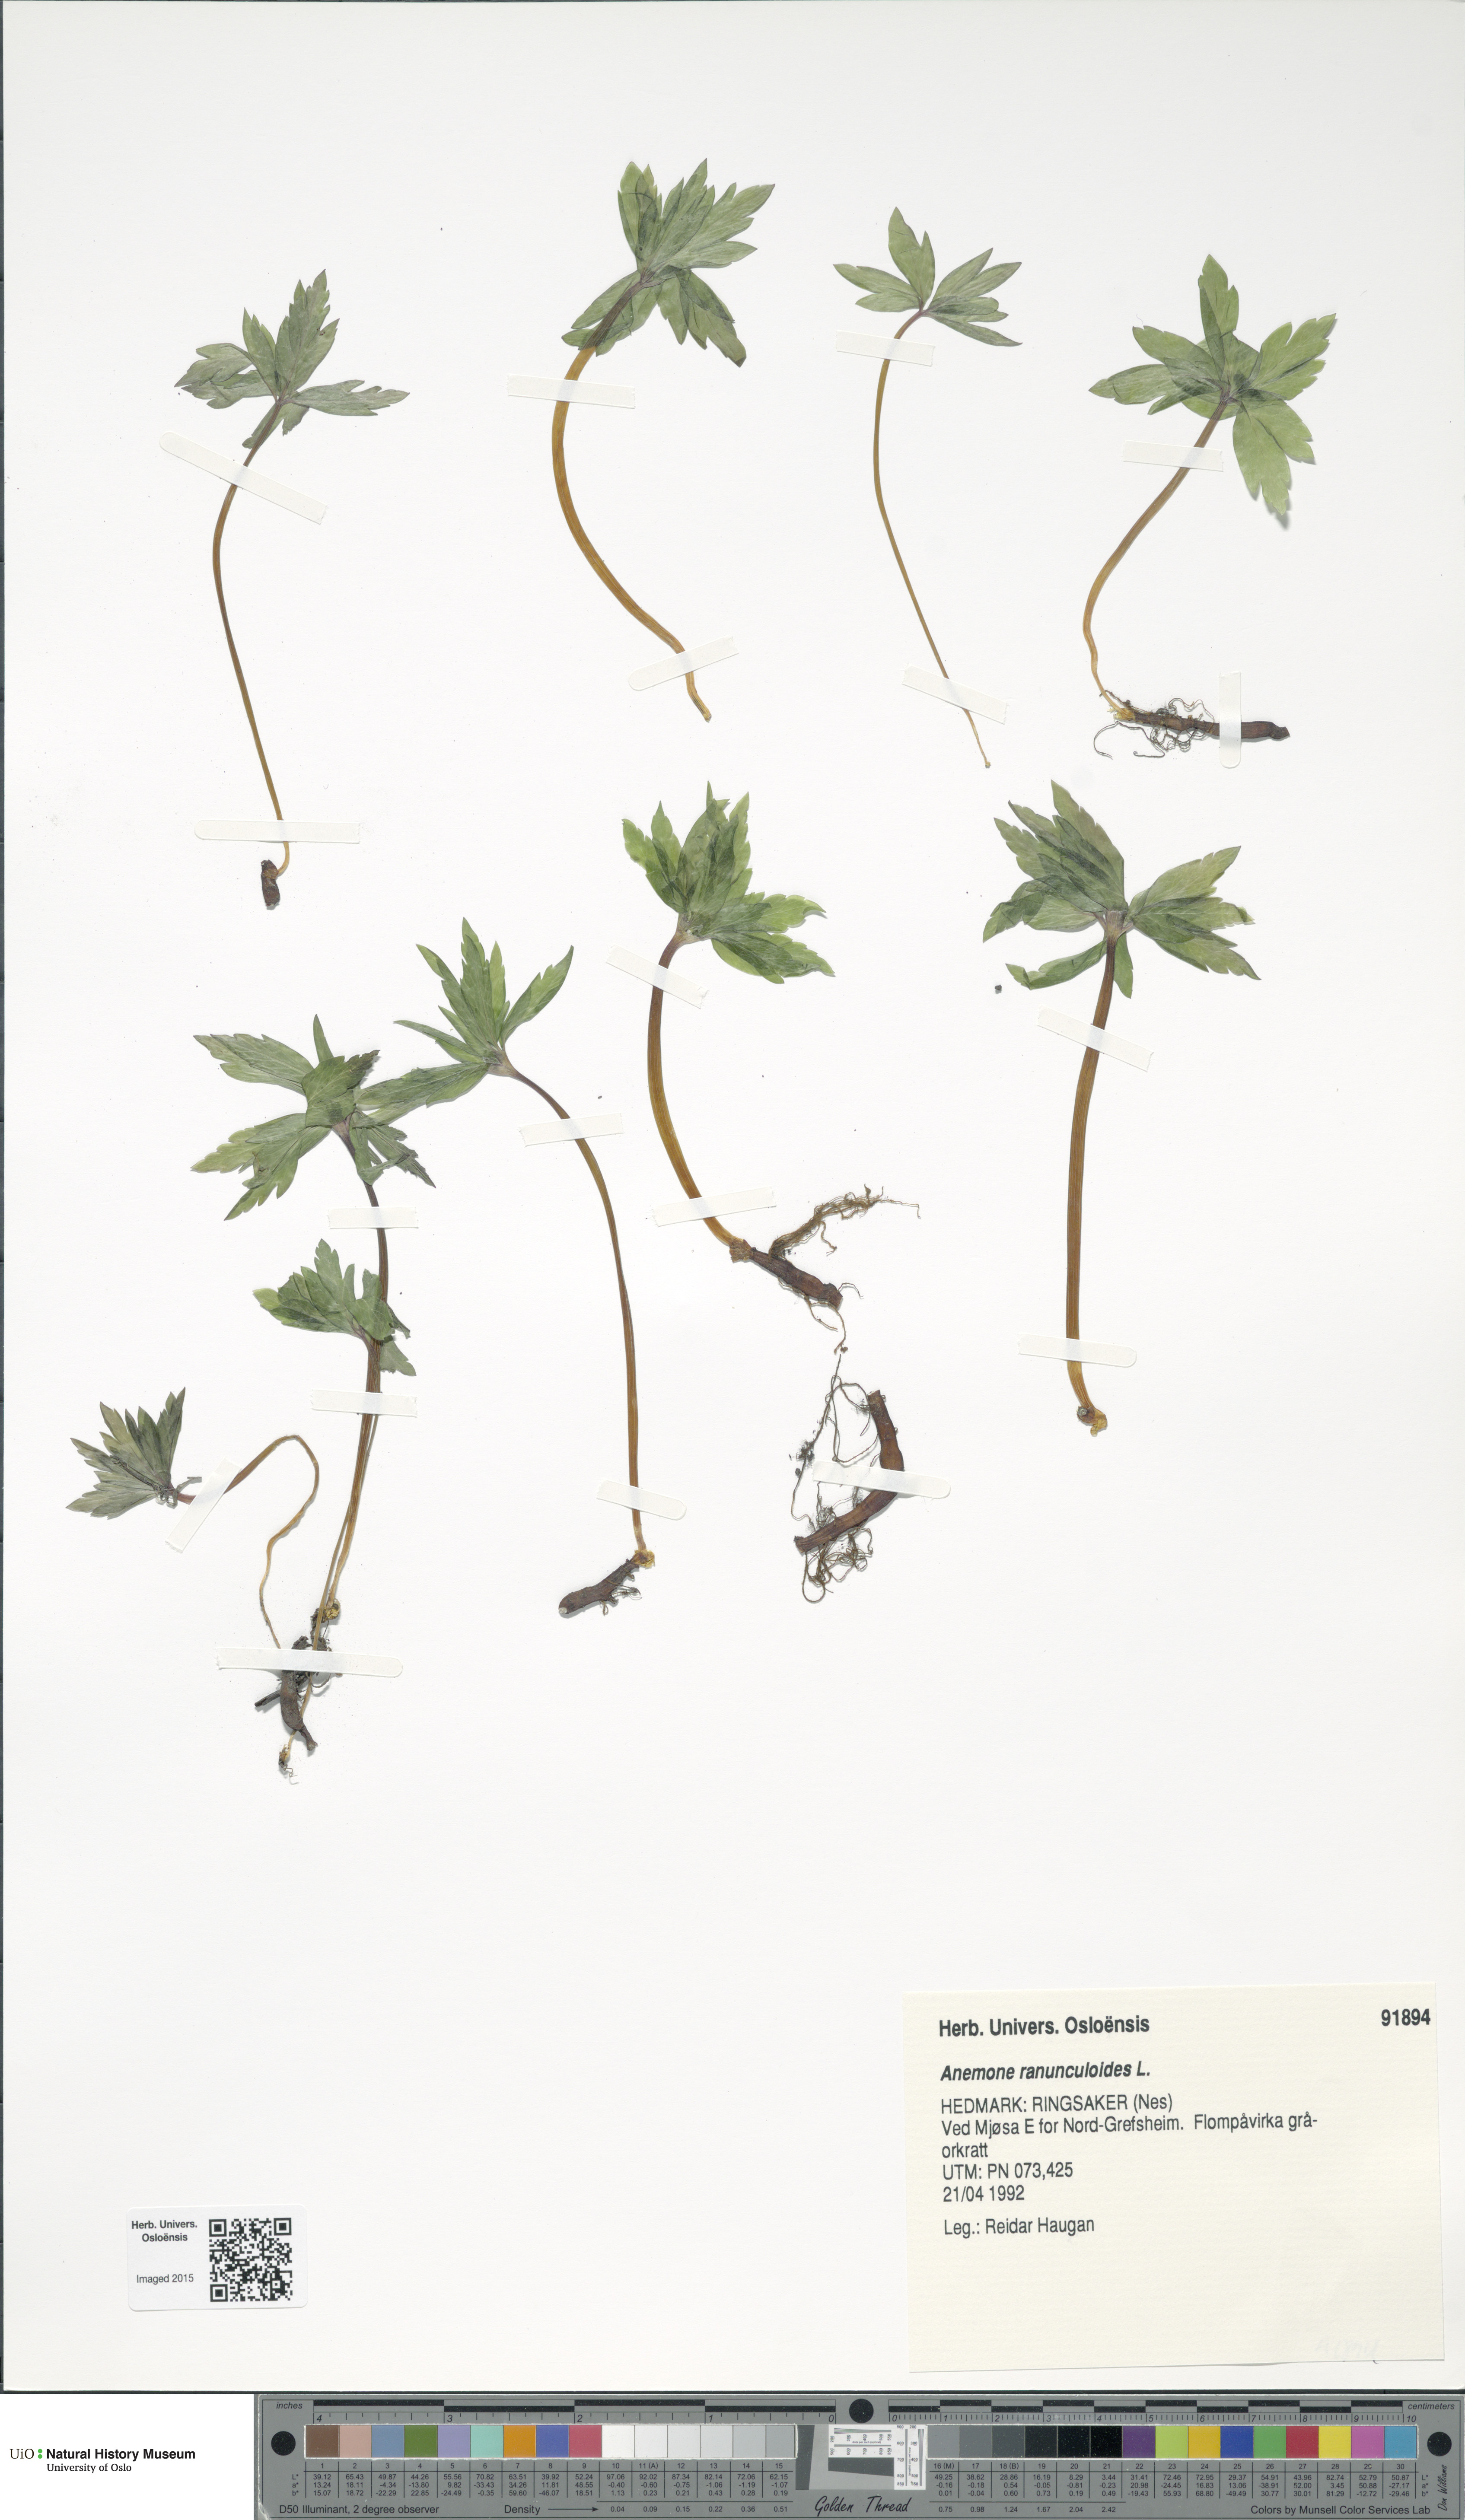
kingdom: Plantae
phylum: Tracheophyta
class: Magnoliopsida
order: Ranunculales
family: Ranunculaceae
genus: Anemone
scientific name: Anemone ranunculoides
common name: Yellow anemone
